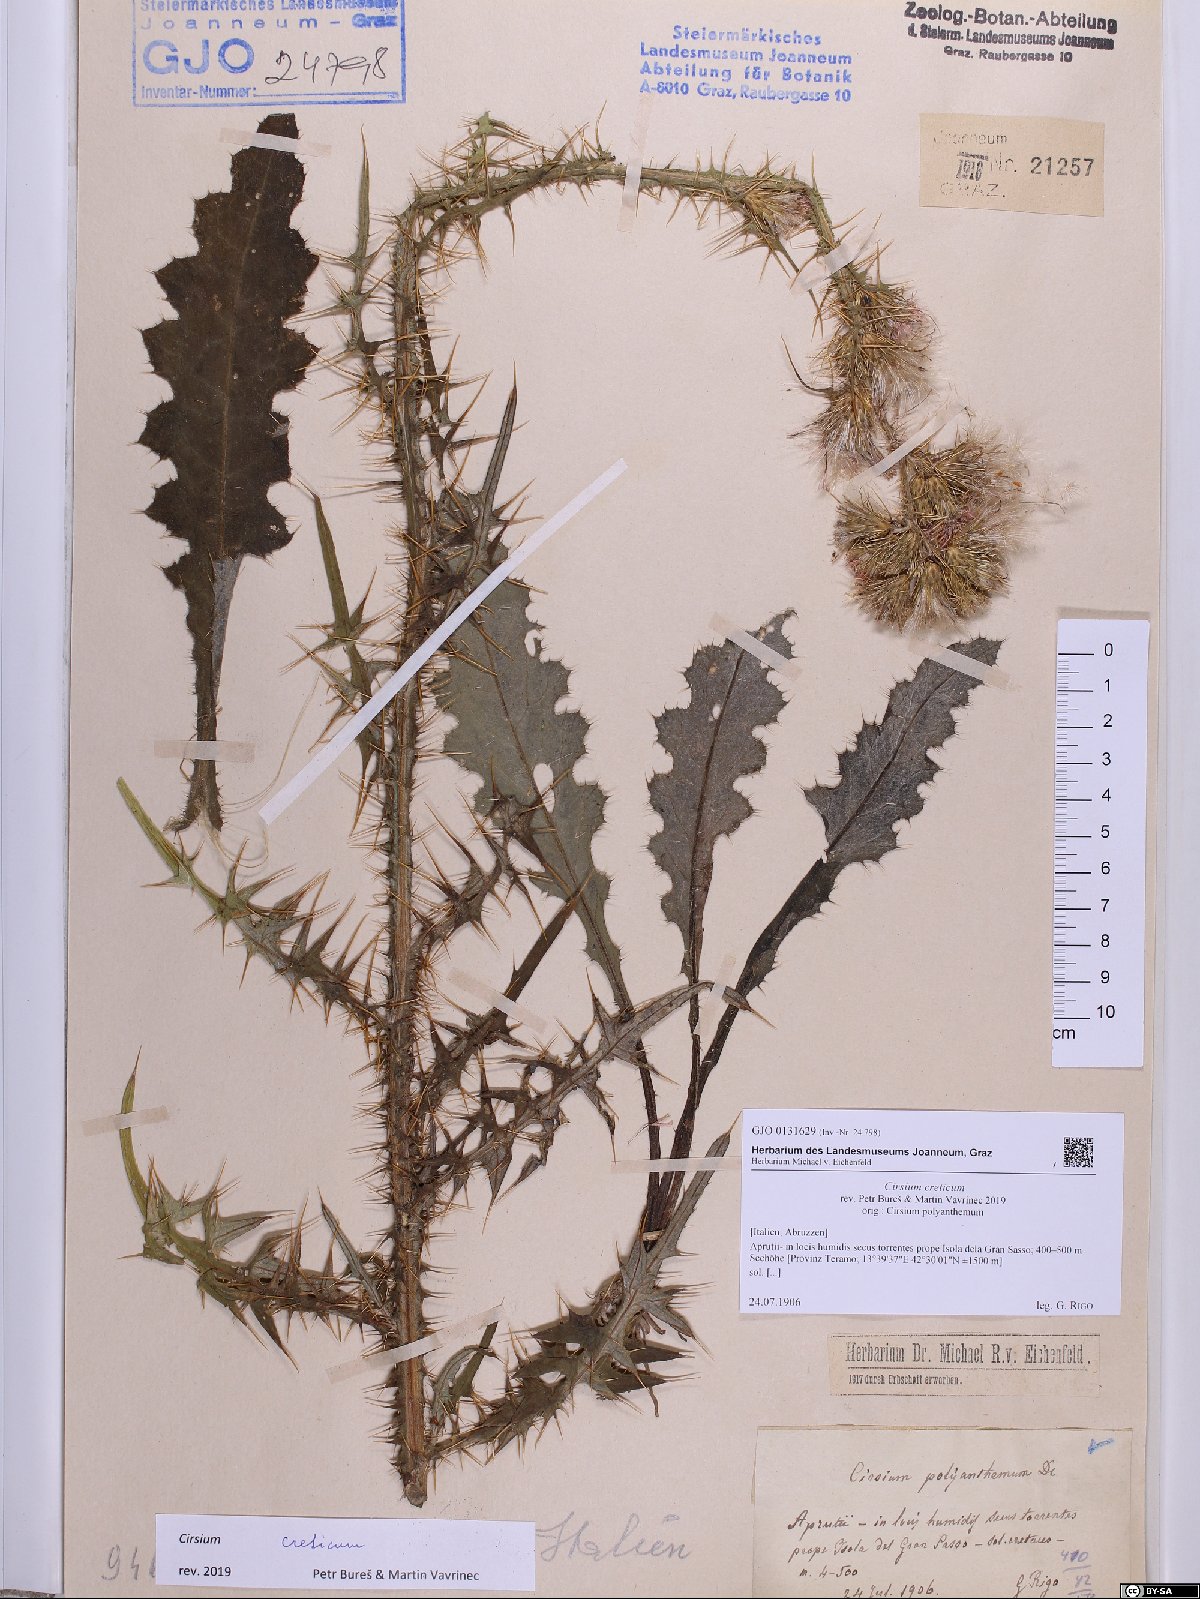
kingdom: Plantae
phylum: Tracheophyta
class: Magnoliopsida
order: Asterales
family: Asteraceae
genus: Cirsium
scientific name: Cirsium creticum
